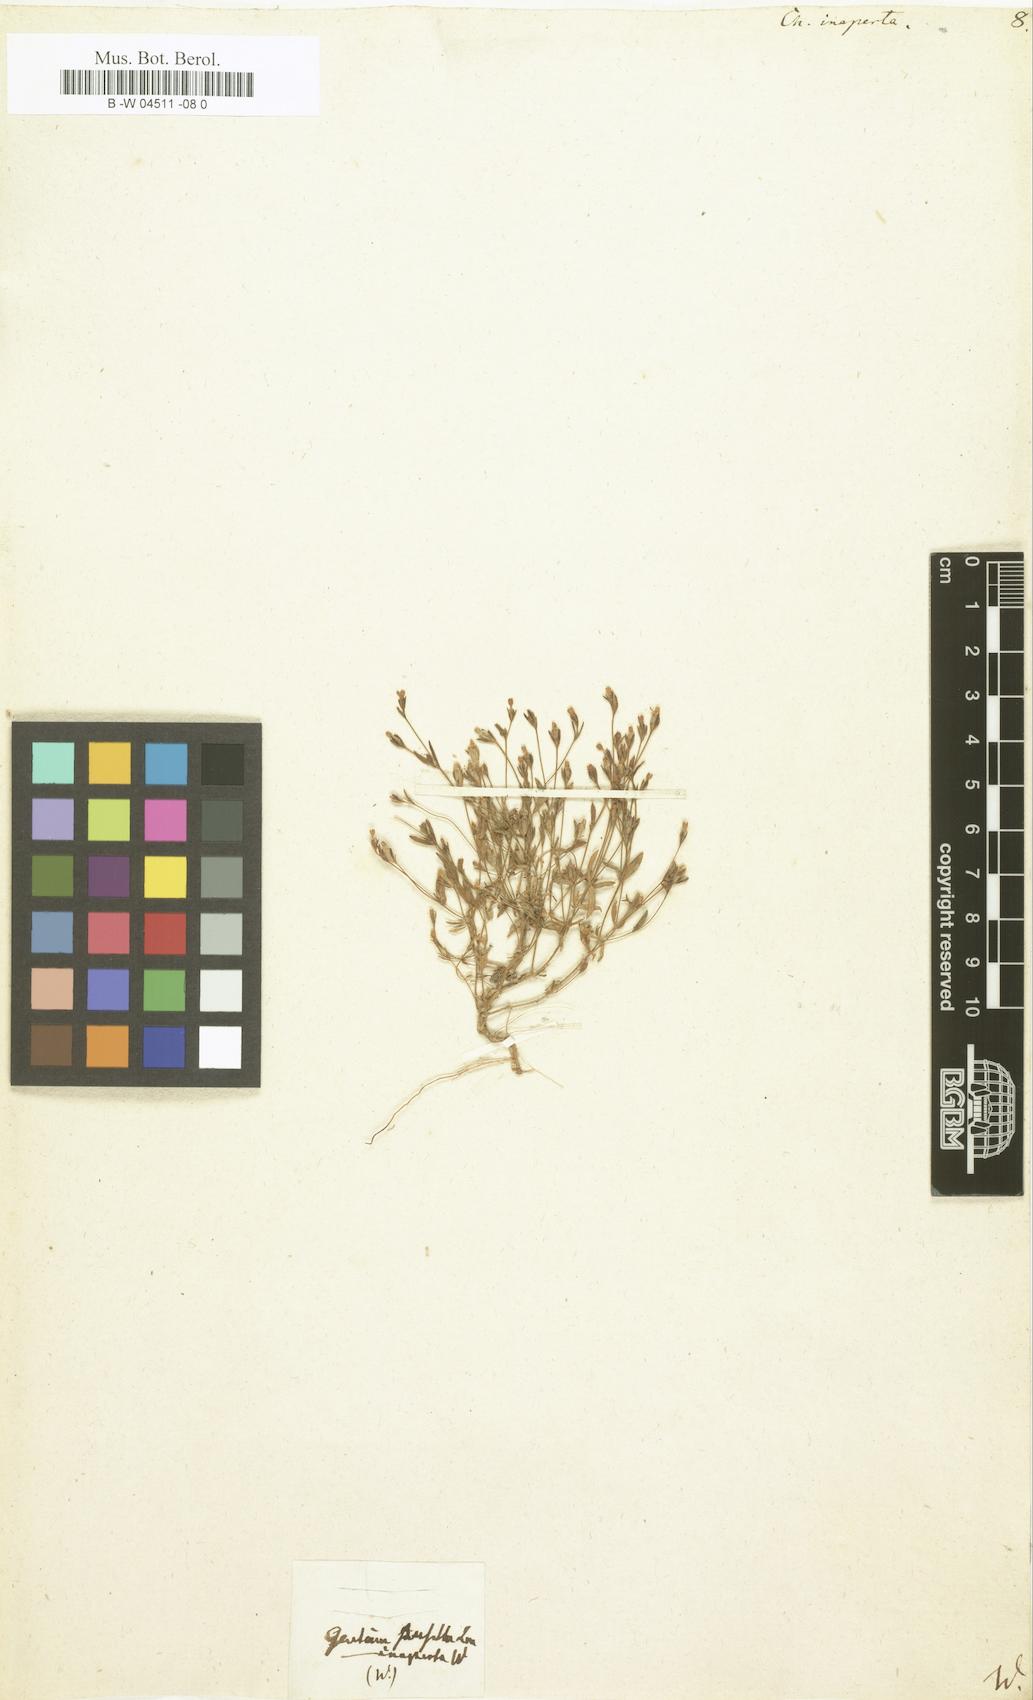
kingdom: Plantae
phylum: Tracheophyta
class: Magnoliopsida
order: Gentianales
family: Gentianaceae
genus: Centaurium
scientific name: Centaurium pulchellum
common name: Lesser centaury
